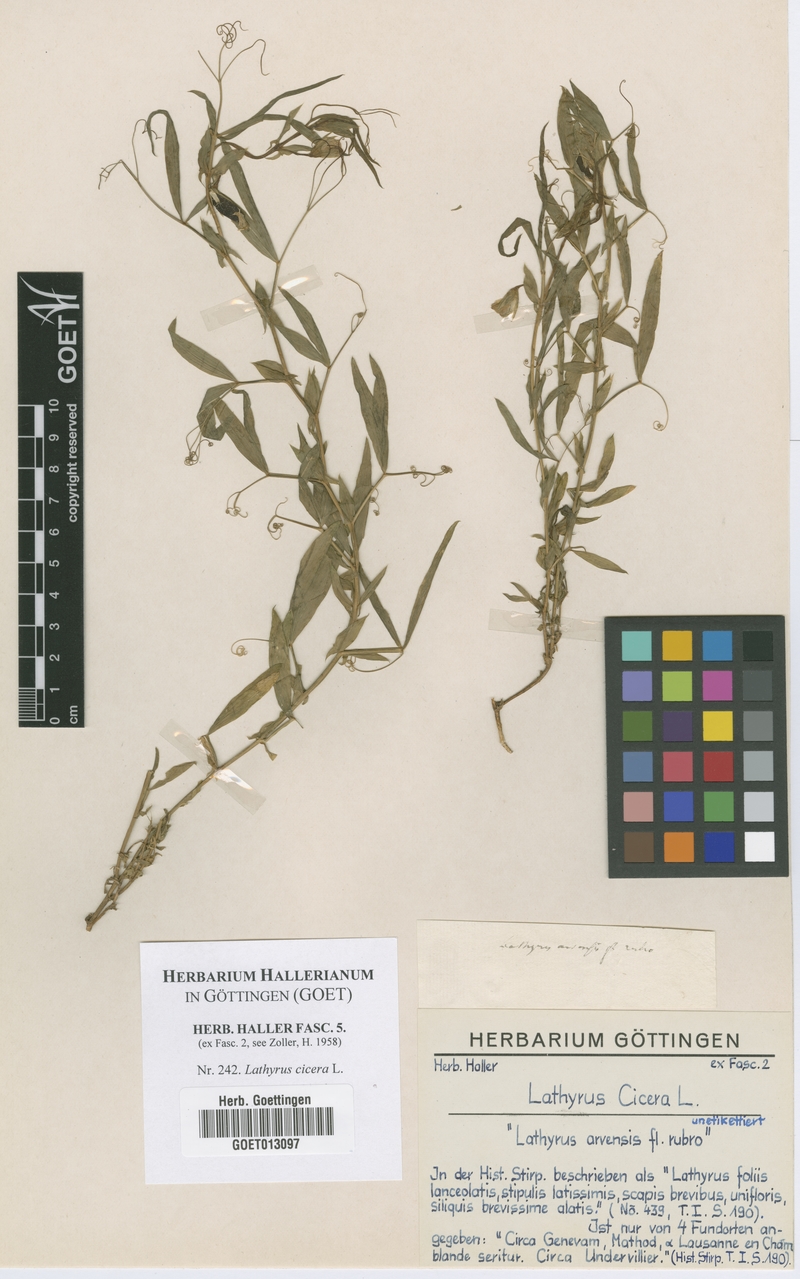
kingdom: Plantae
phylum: Tracheophyta
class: Magnoliopsida
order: Fabales
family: Fabaceae
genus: Lathyrus
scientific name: Lathyrus cicera
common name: Red vetchling
